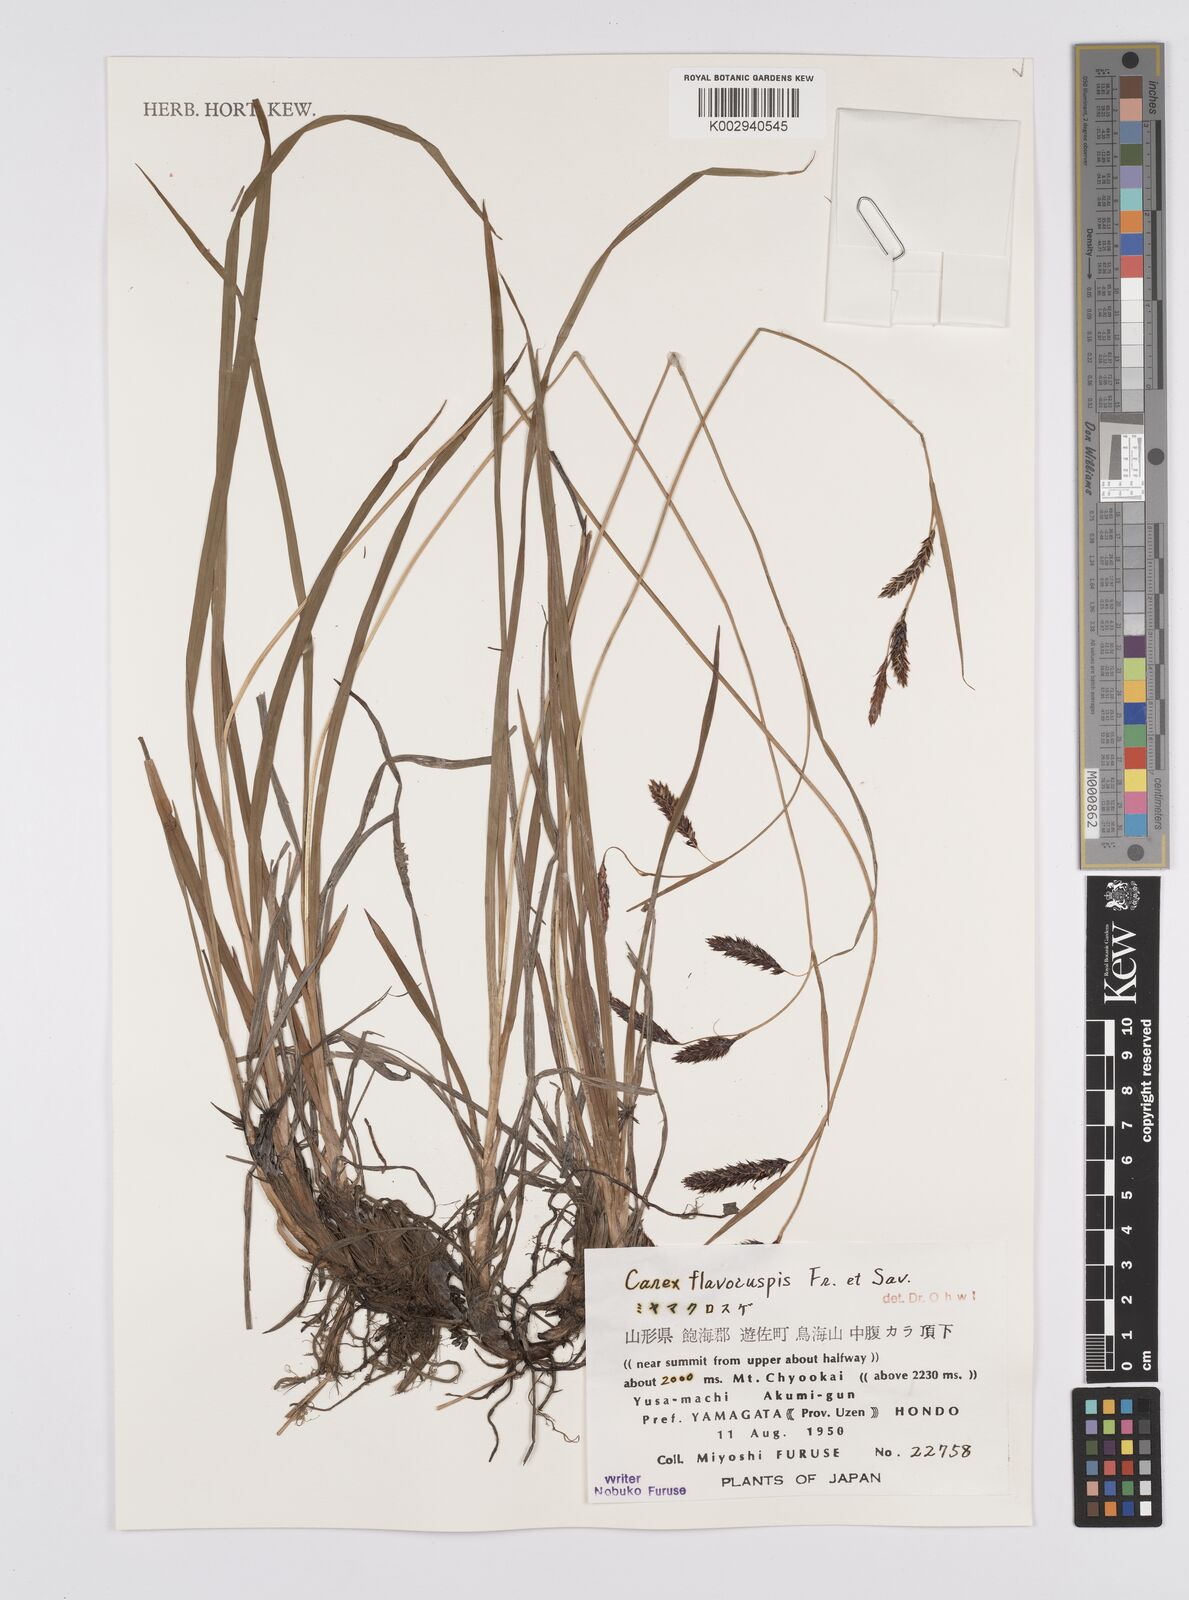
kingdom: Plantae
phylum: Tracheophyta
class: Liliopsida
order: Poales
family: Cyperaceae
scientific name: Cyperaceae
